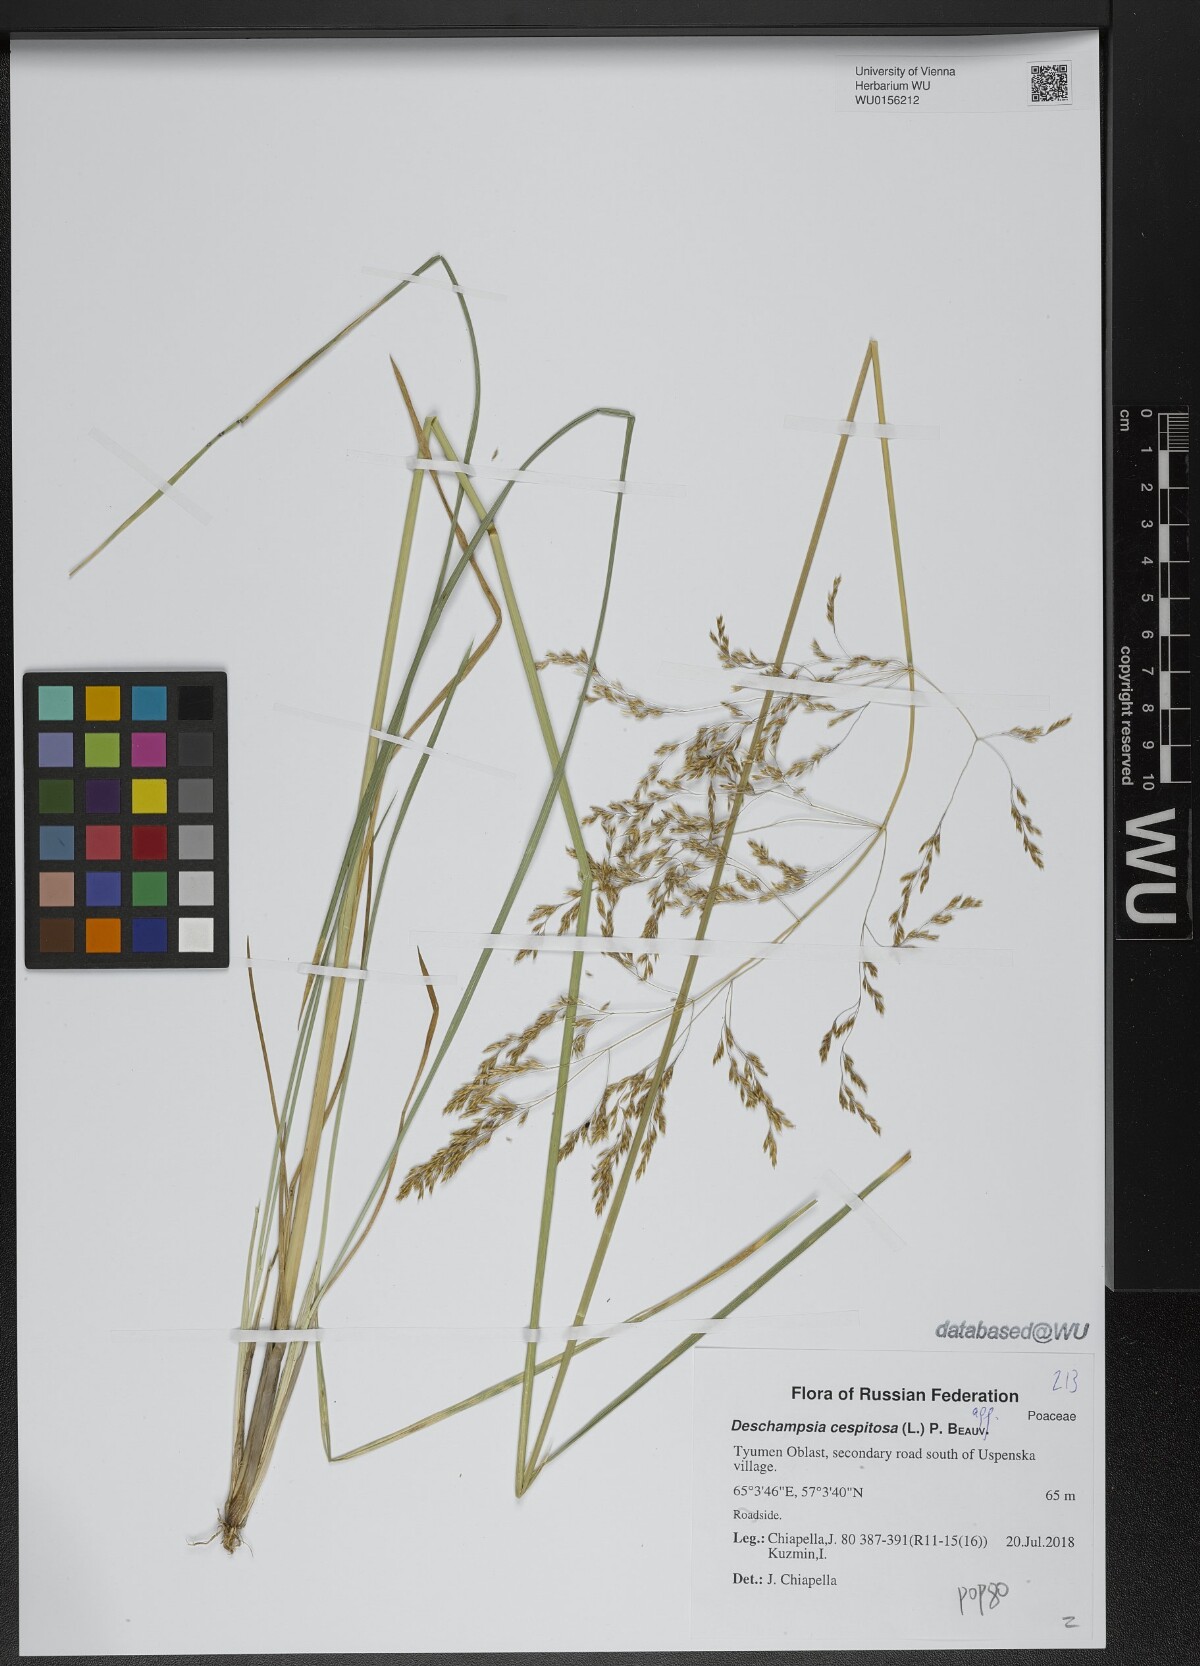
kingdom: Plantae
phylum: Tracheophyta
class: Liliopsida
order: Poales
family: Poaceae
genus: Deschampsia
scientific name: Deschampsia cespitosa
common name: Tufted hair-grass
